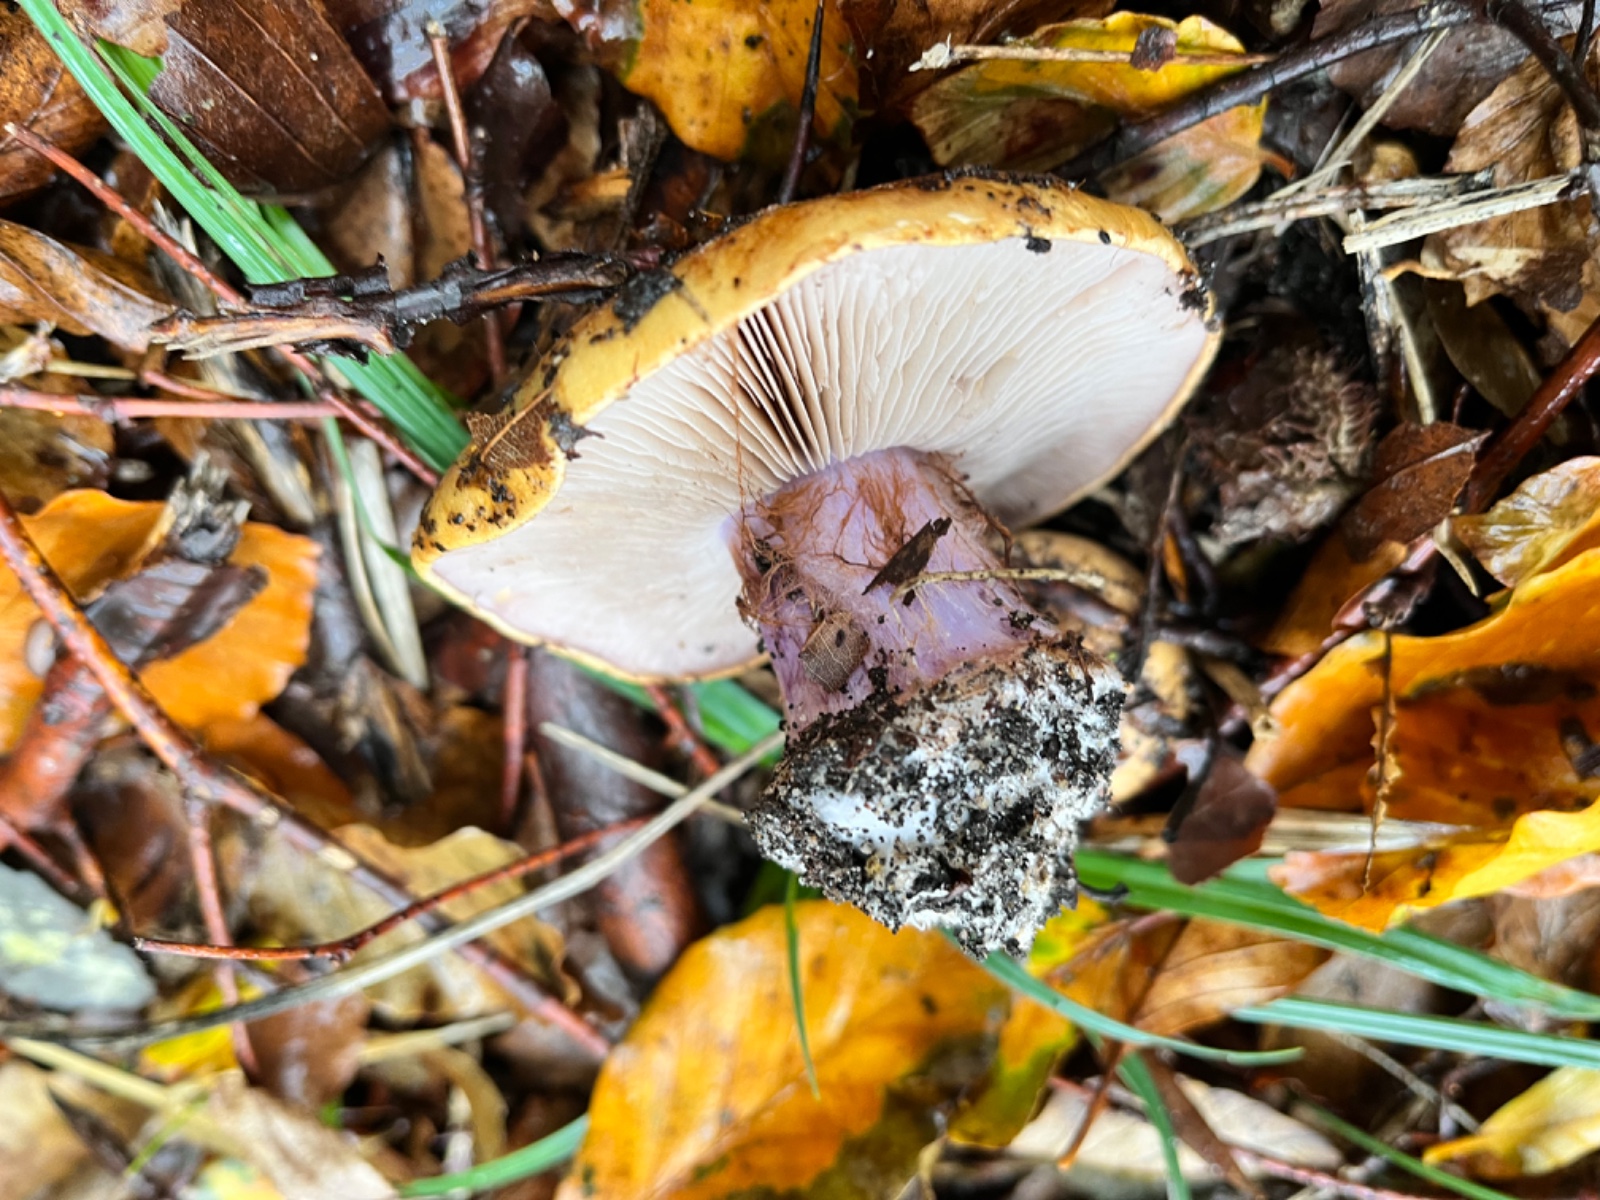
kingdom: Fungi
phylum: Basidiomycota
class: Agaricomycetes
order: Agaricales
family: Cortinariaceae
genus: Phlegmacium
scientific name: Phlegmacium
